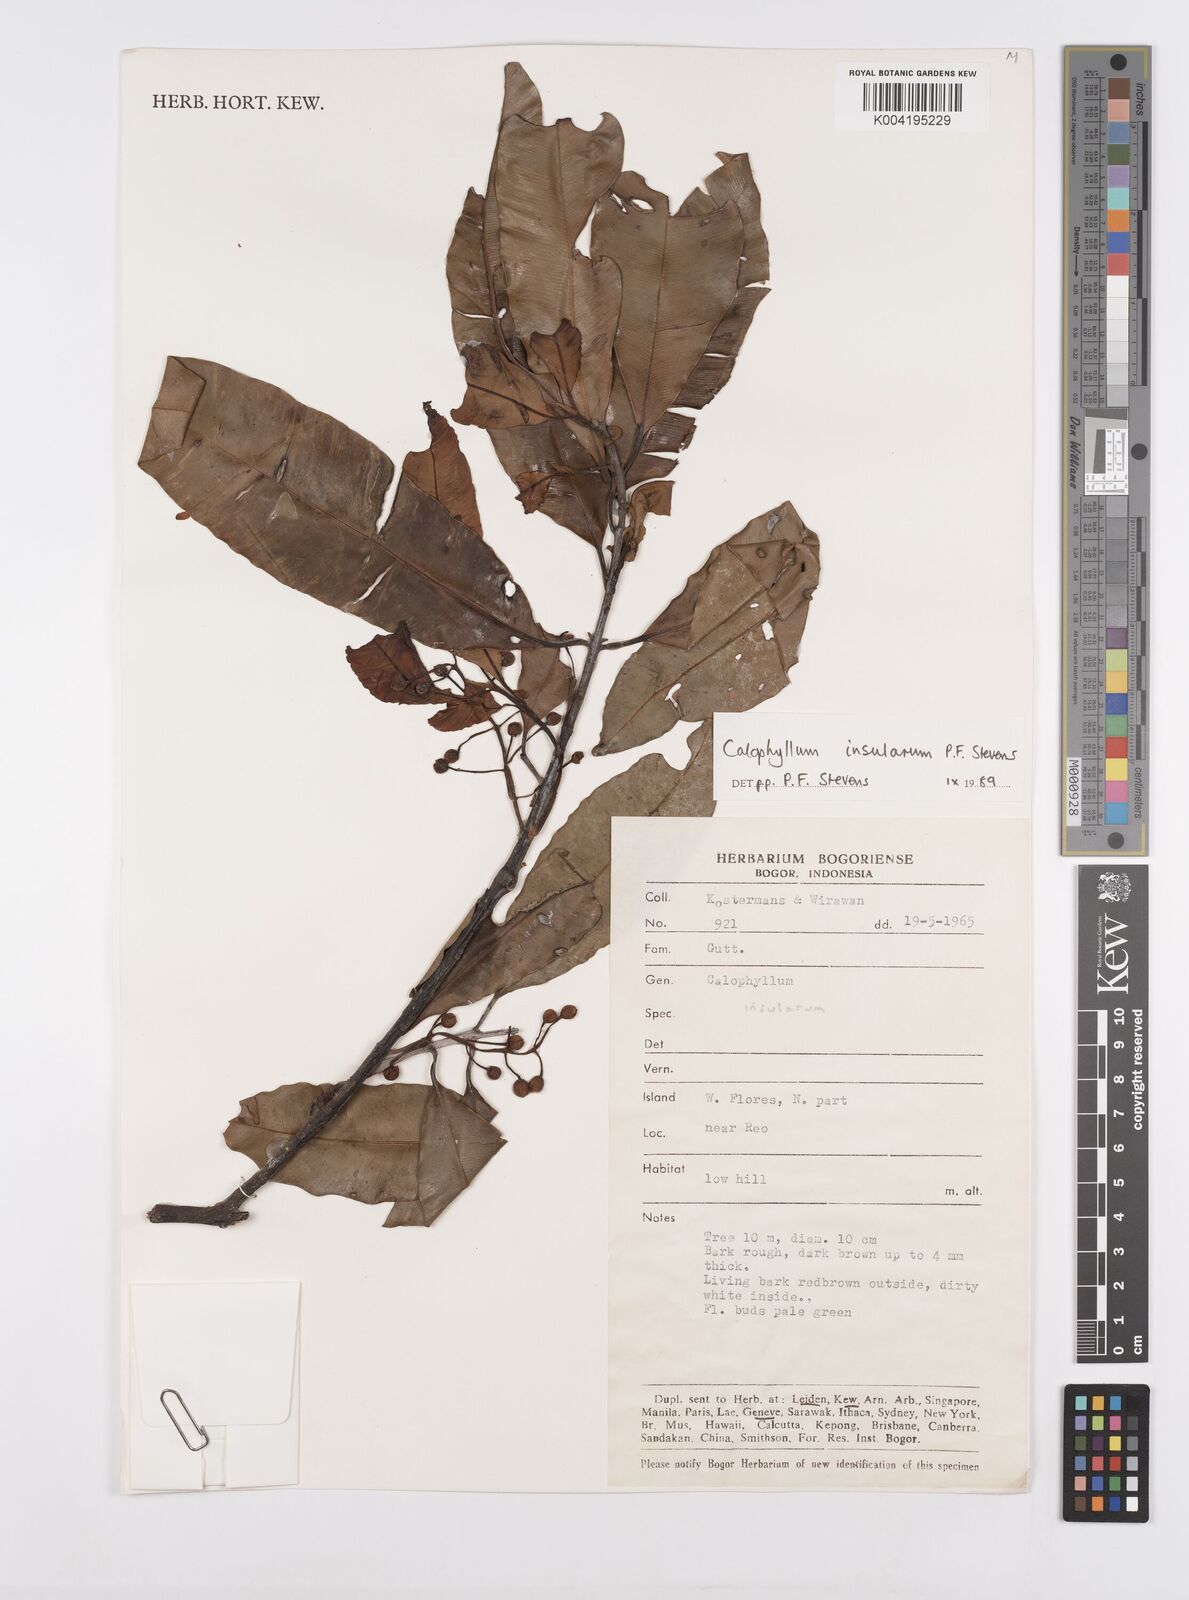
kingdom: Plantae
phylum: Tracheophyta
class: Magnoliopsida
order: Malpighiales
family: Calophyllaceae
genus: Calophyllum
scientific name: Calophyllum insularum
